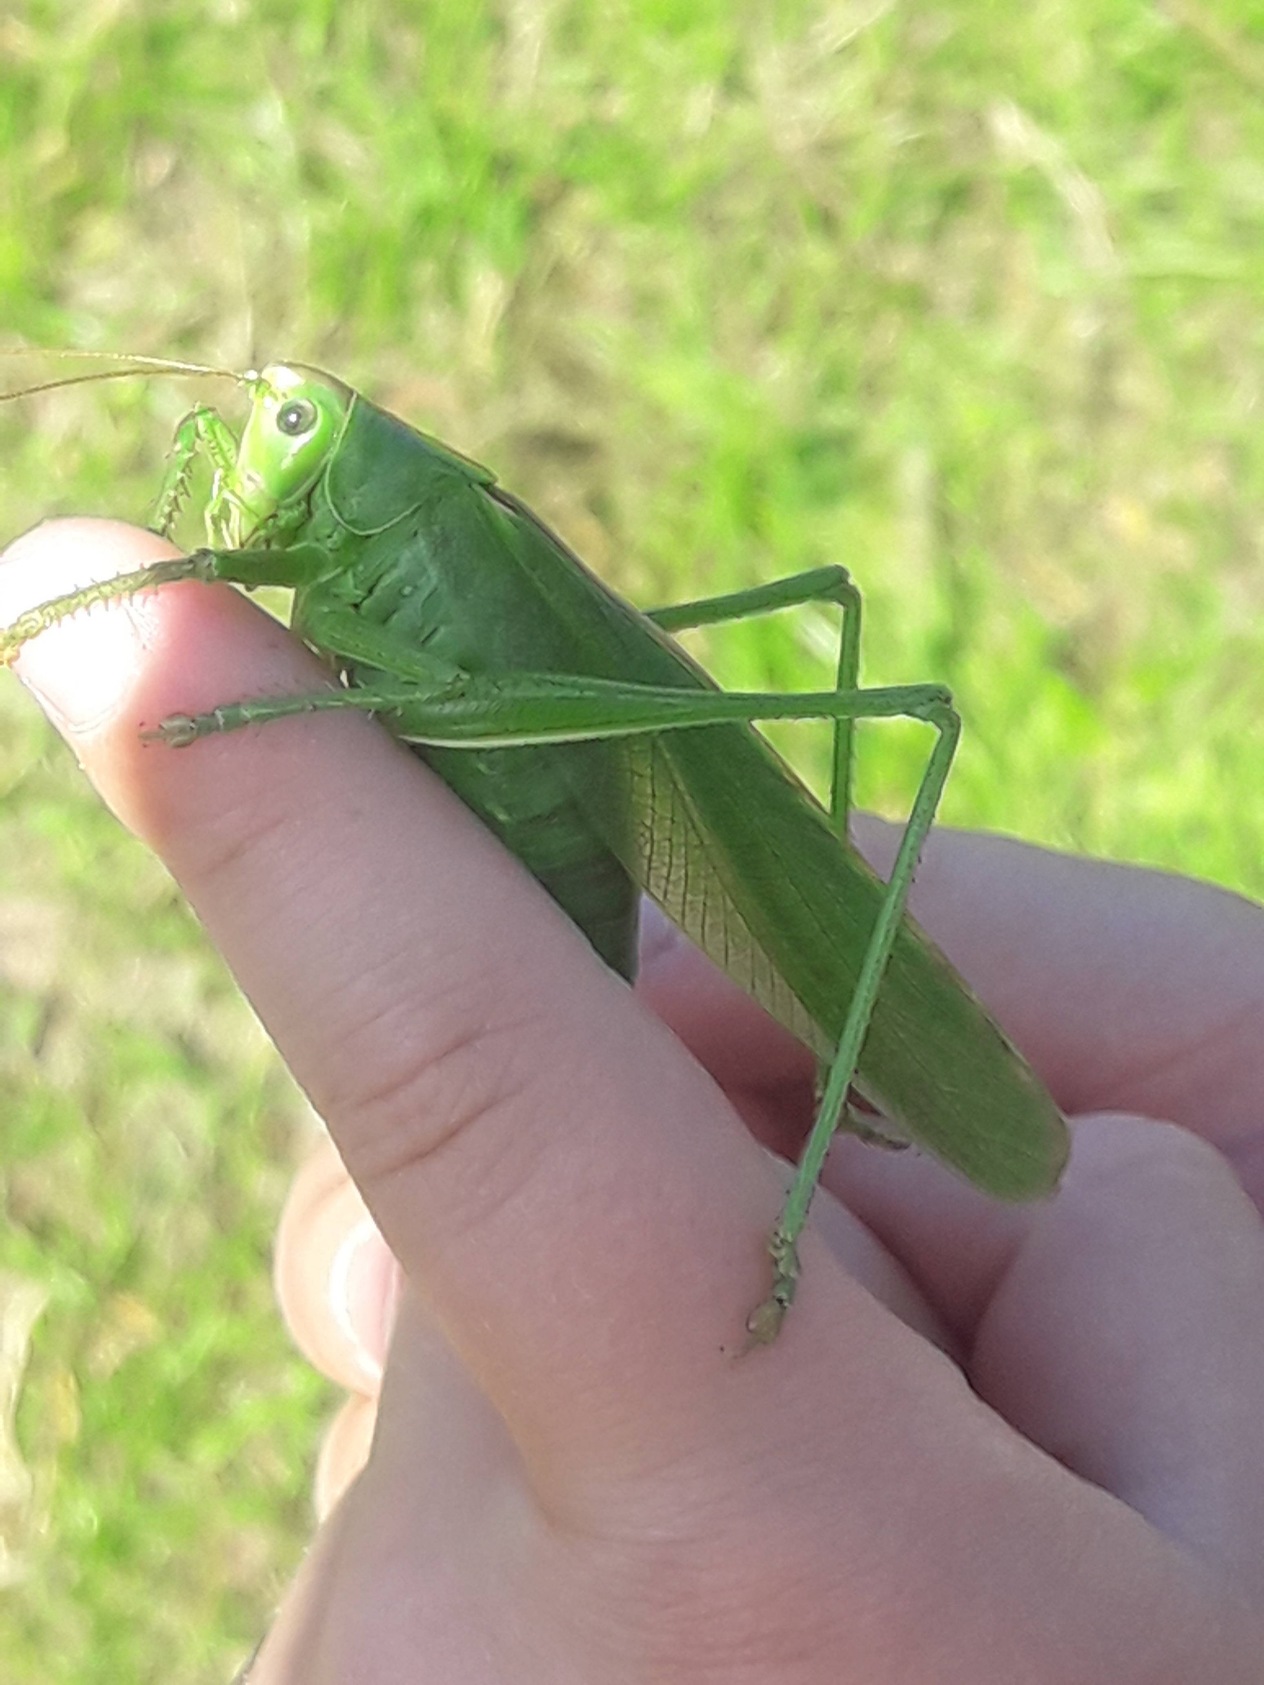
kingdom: Animalia
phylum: Arthropoda
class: Insecta
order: Orthoptera
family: Tettigoniidae
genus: Tettigonia
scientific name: Tettigonia viridissima
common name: Stor grøn løvgræshoppe
